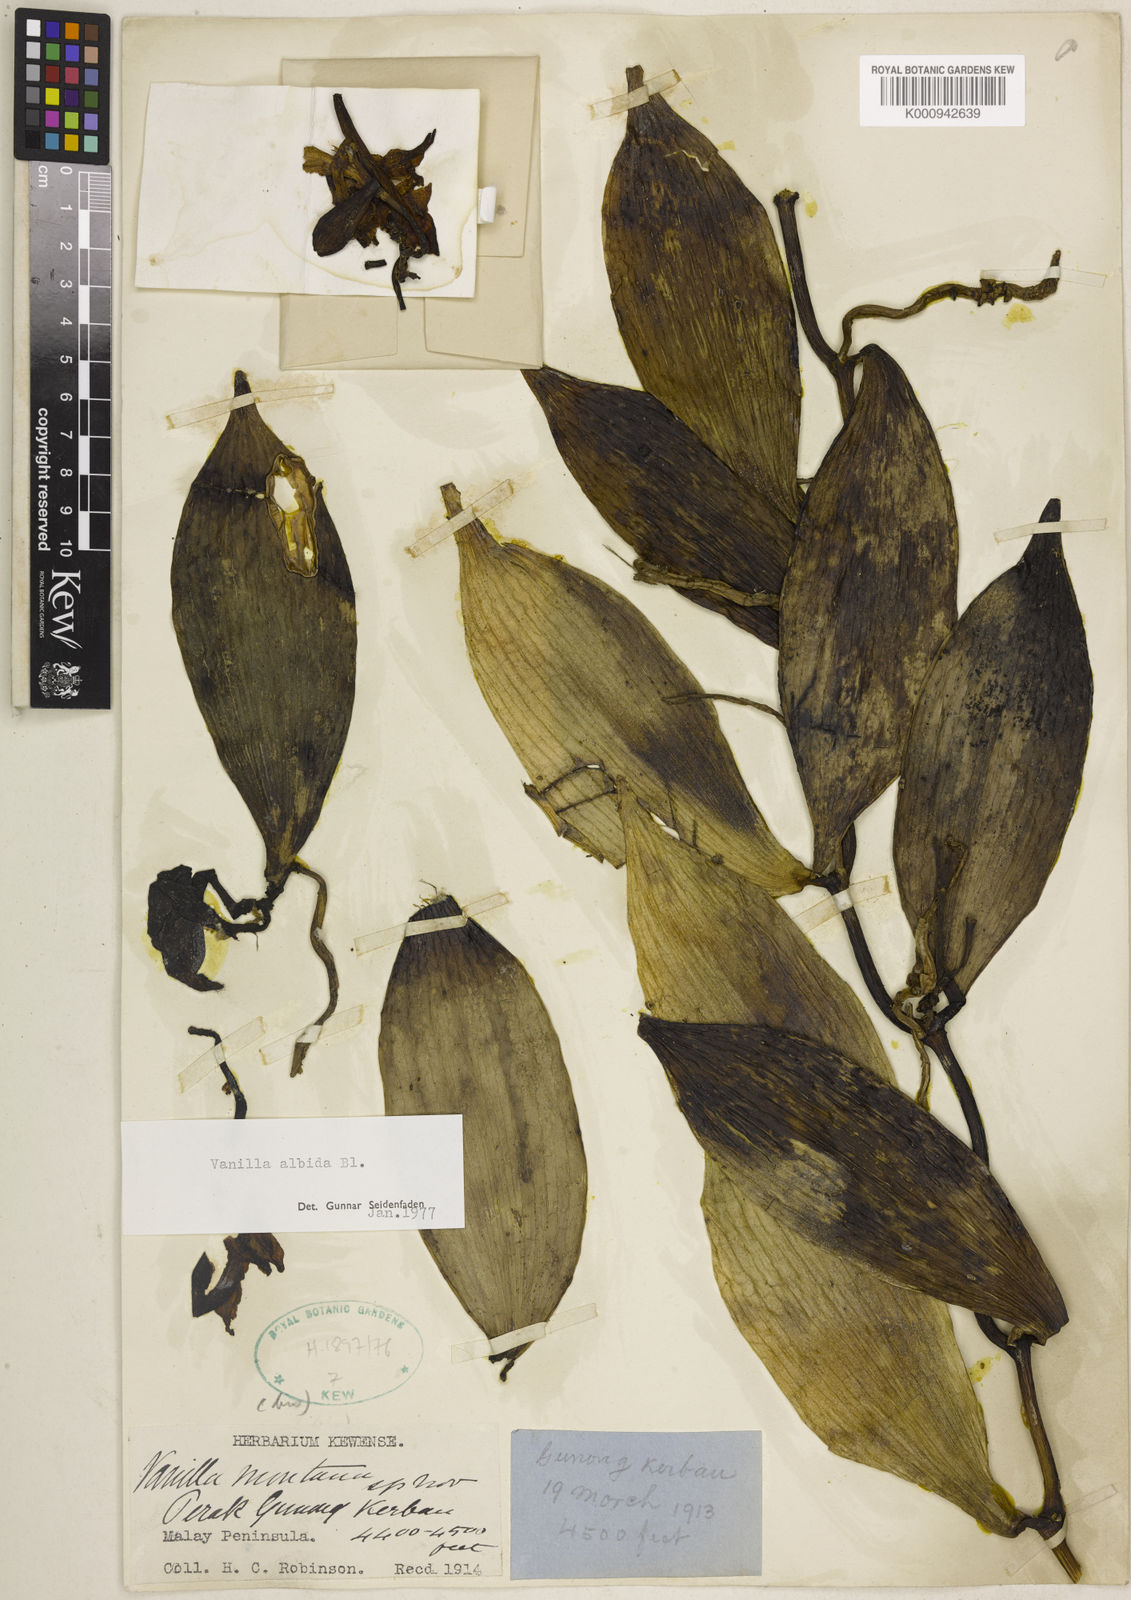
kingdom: Plantae
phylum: Tracheophyta
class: Liliopsida
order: Asparagales
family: Orchidaceae
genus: Vanilla
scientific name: Vanilla albida
